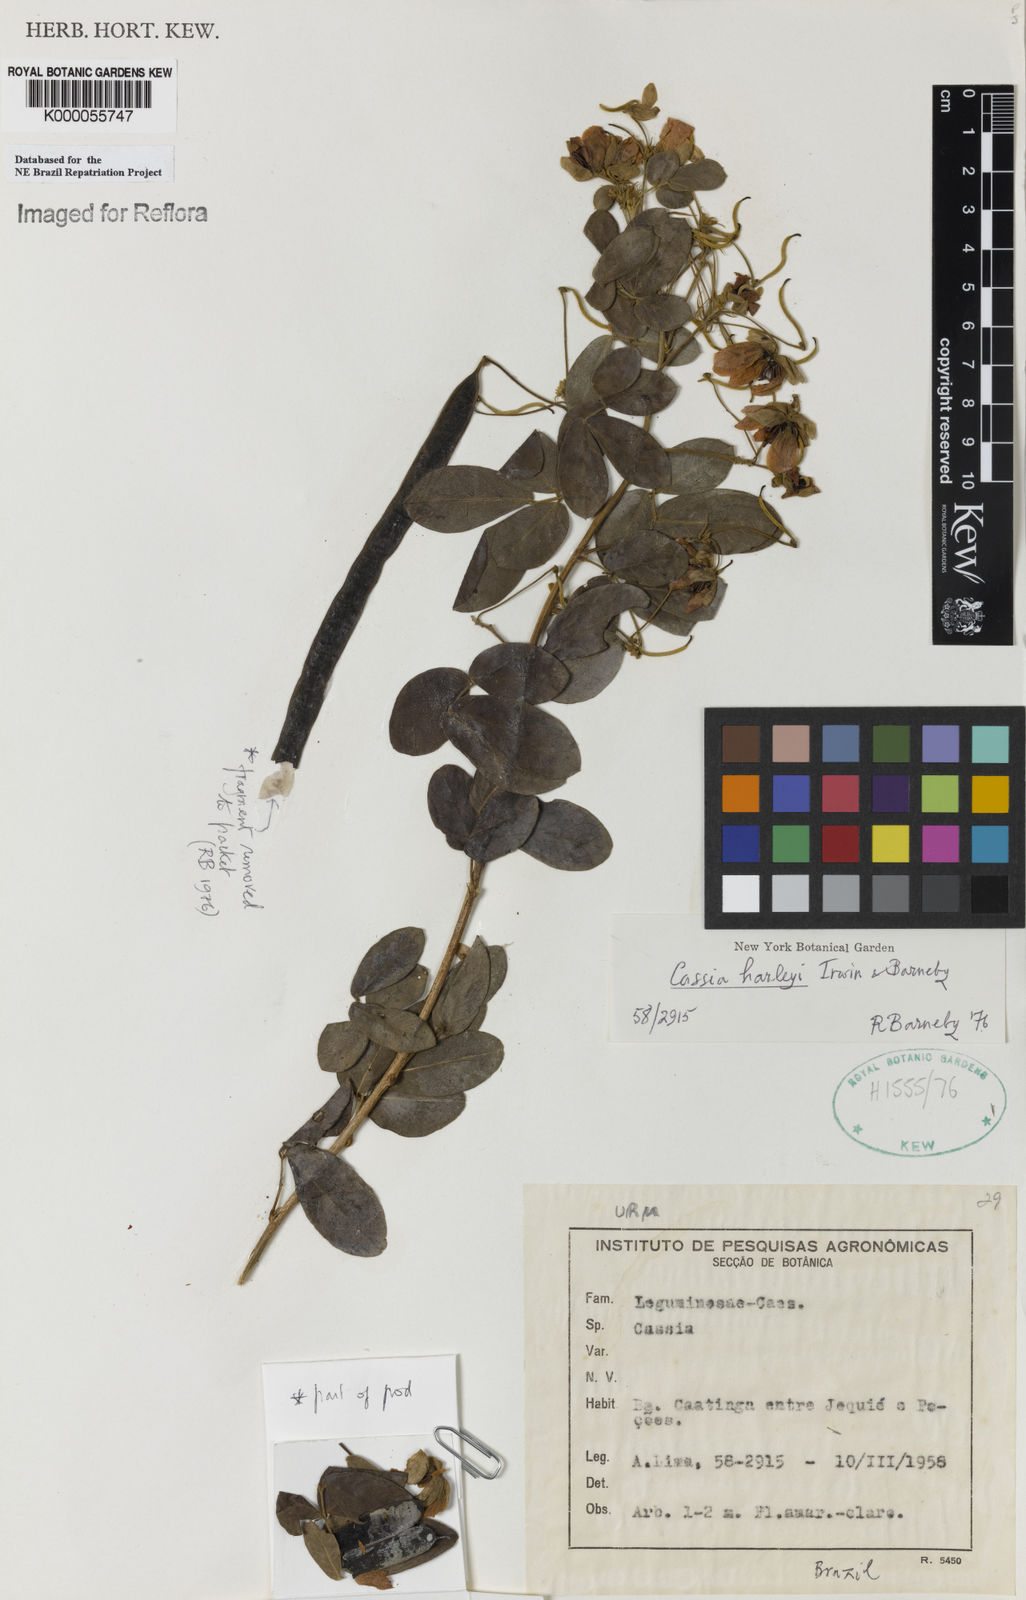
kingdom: Plantae
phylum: Tracheophyta
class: Magnoliopsida
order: Fabales
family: Fabaceae
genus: Senna
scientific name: Senna harleyi
